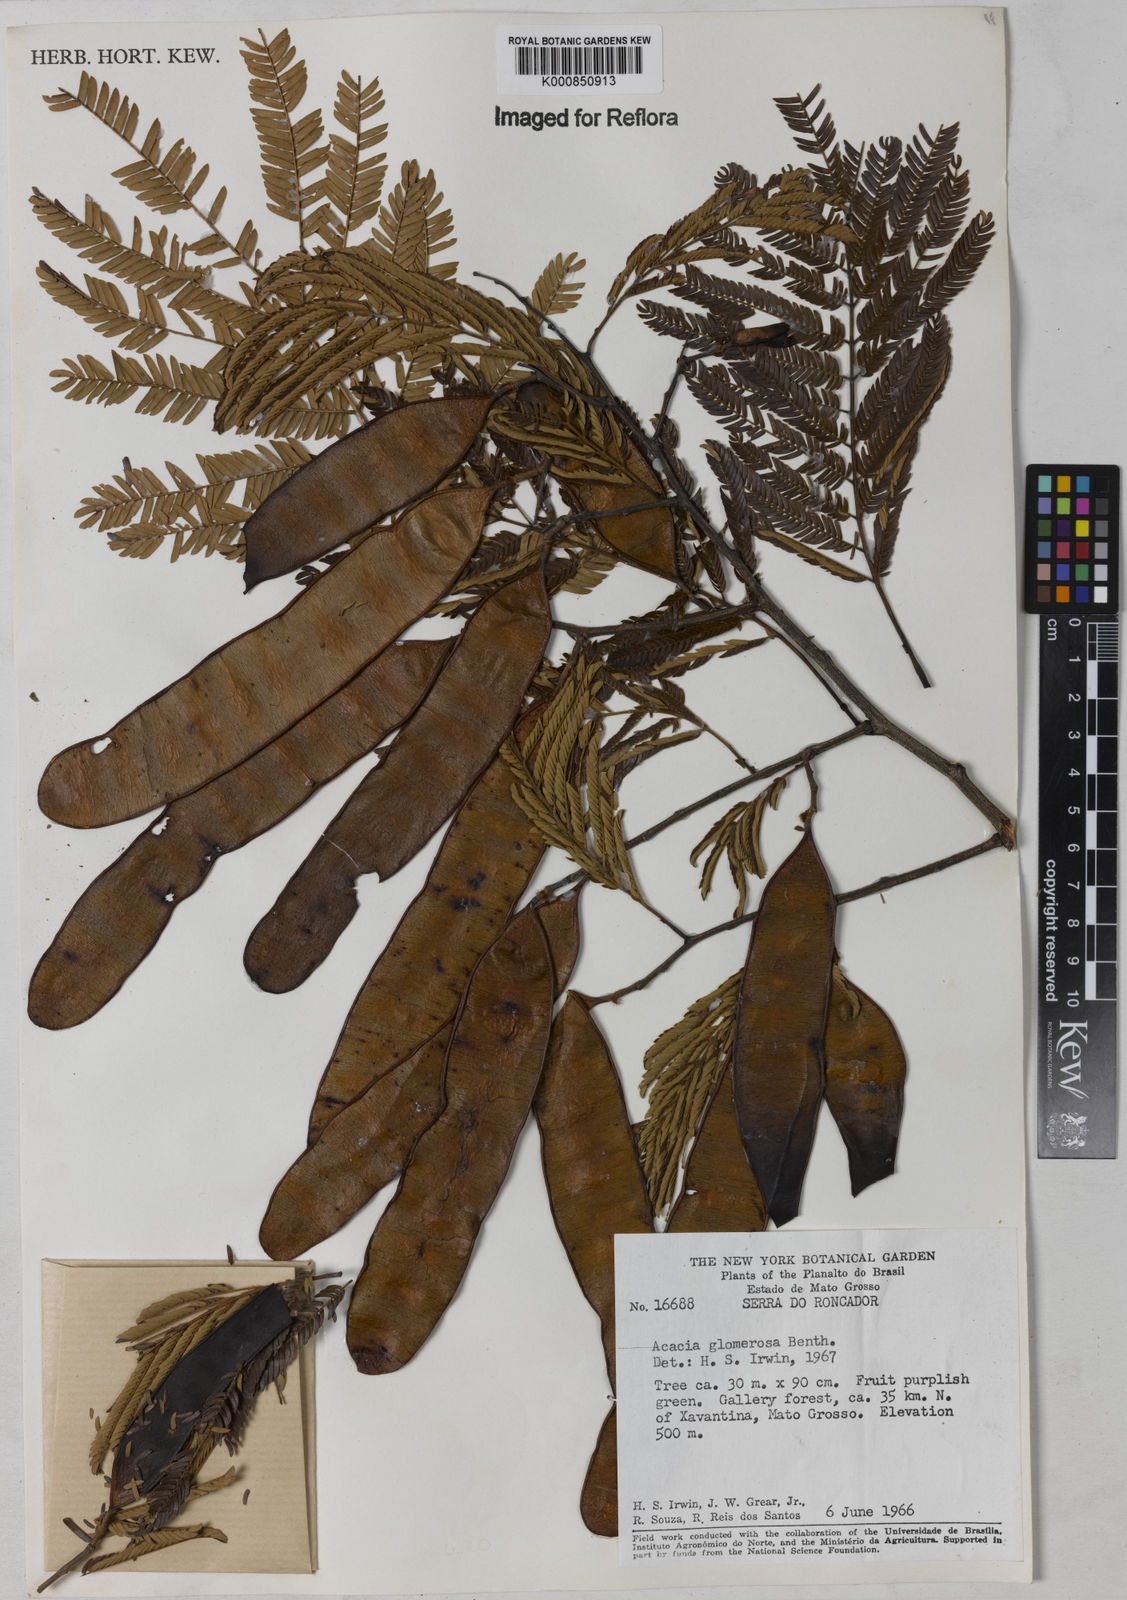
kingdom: Plantae
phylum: Tracheophyta
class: Magnoliopsida
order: Fabales
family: Fabaceae
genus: Senegalia
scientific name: Senegalia polyphylla
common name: White-tamarind
